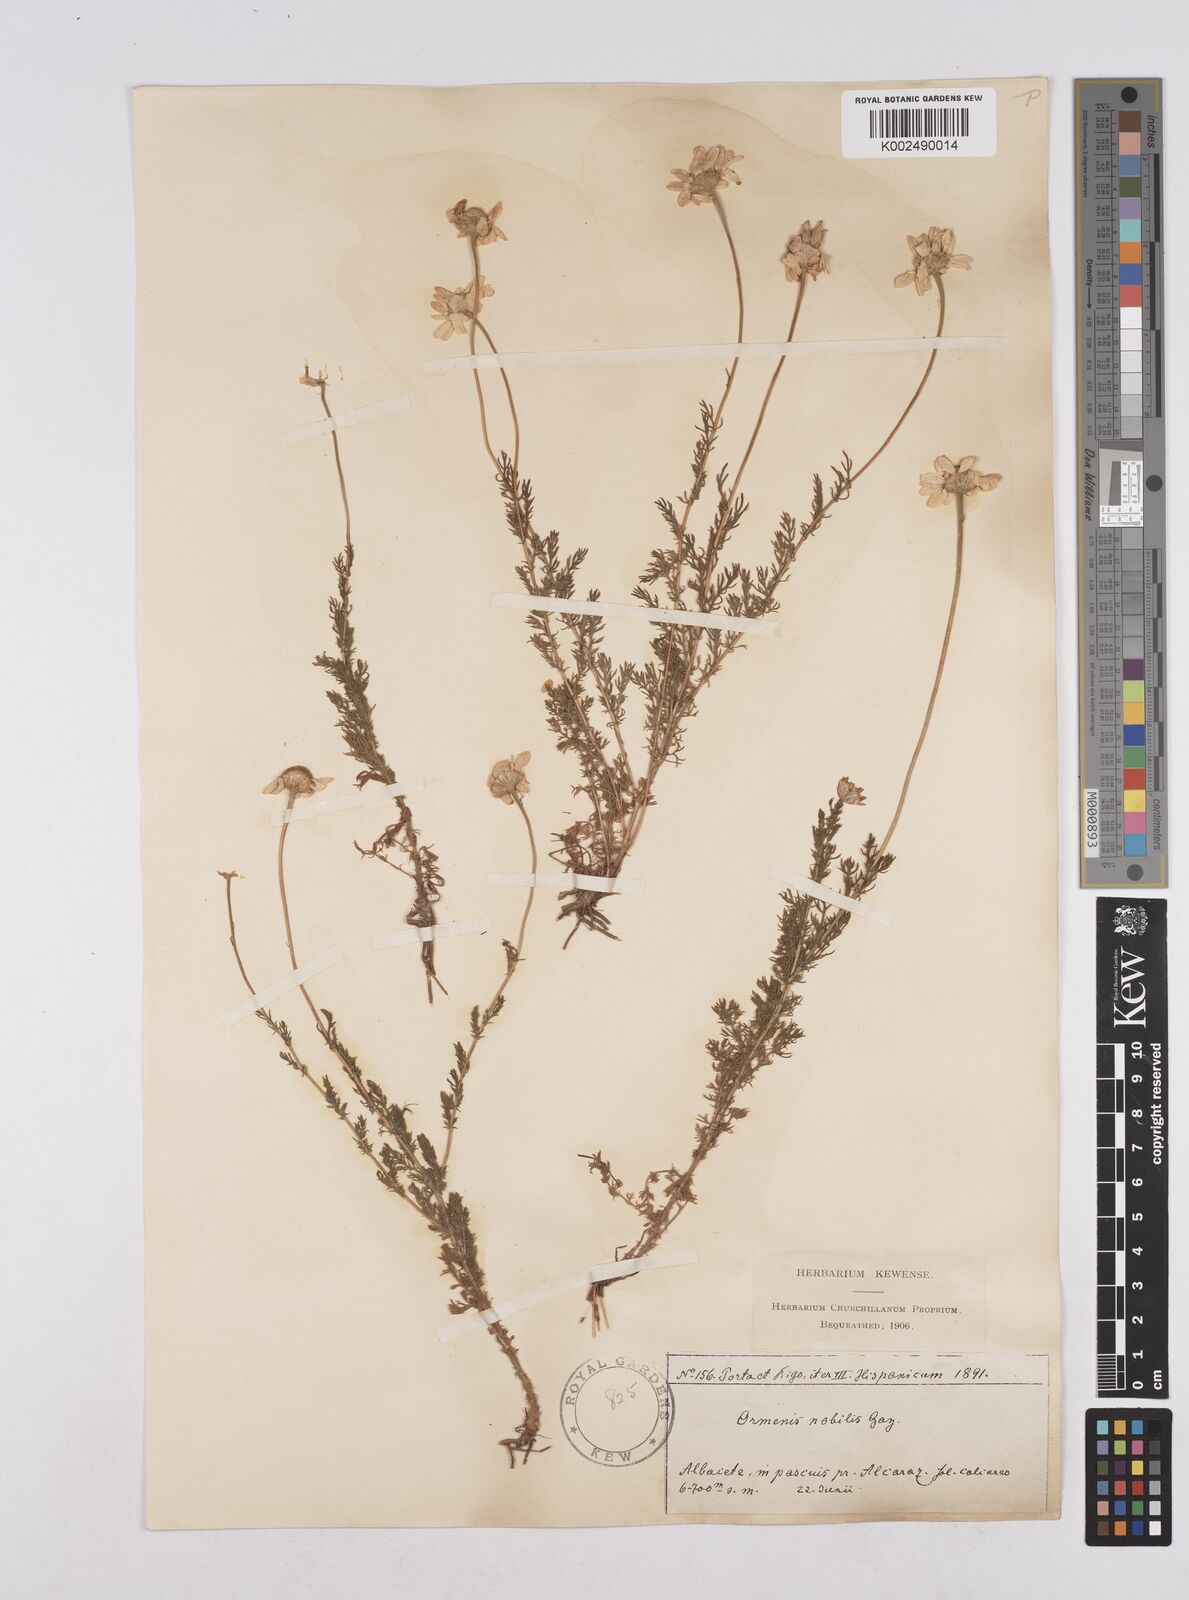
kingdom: Plantae
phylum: Tracheophyta
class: Magnoliopsida
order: Asterales
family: Asteraceae
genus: Chamaemelum
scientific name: Chamaemelum
